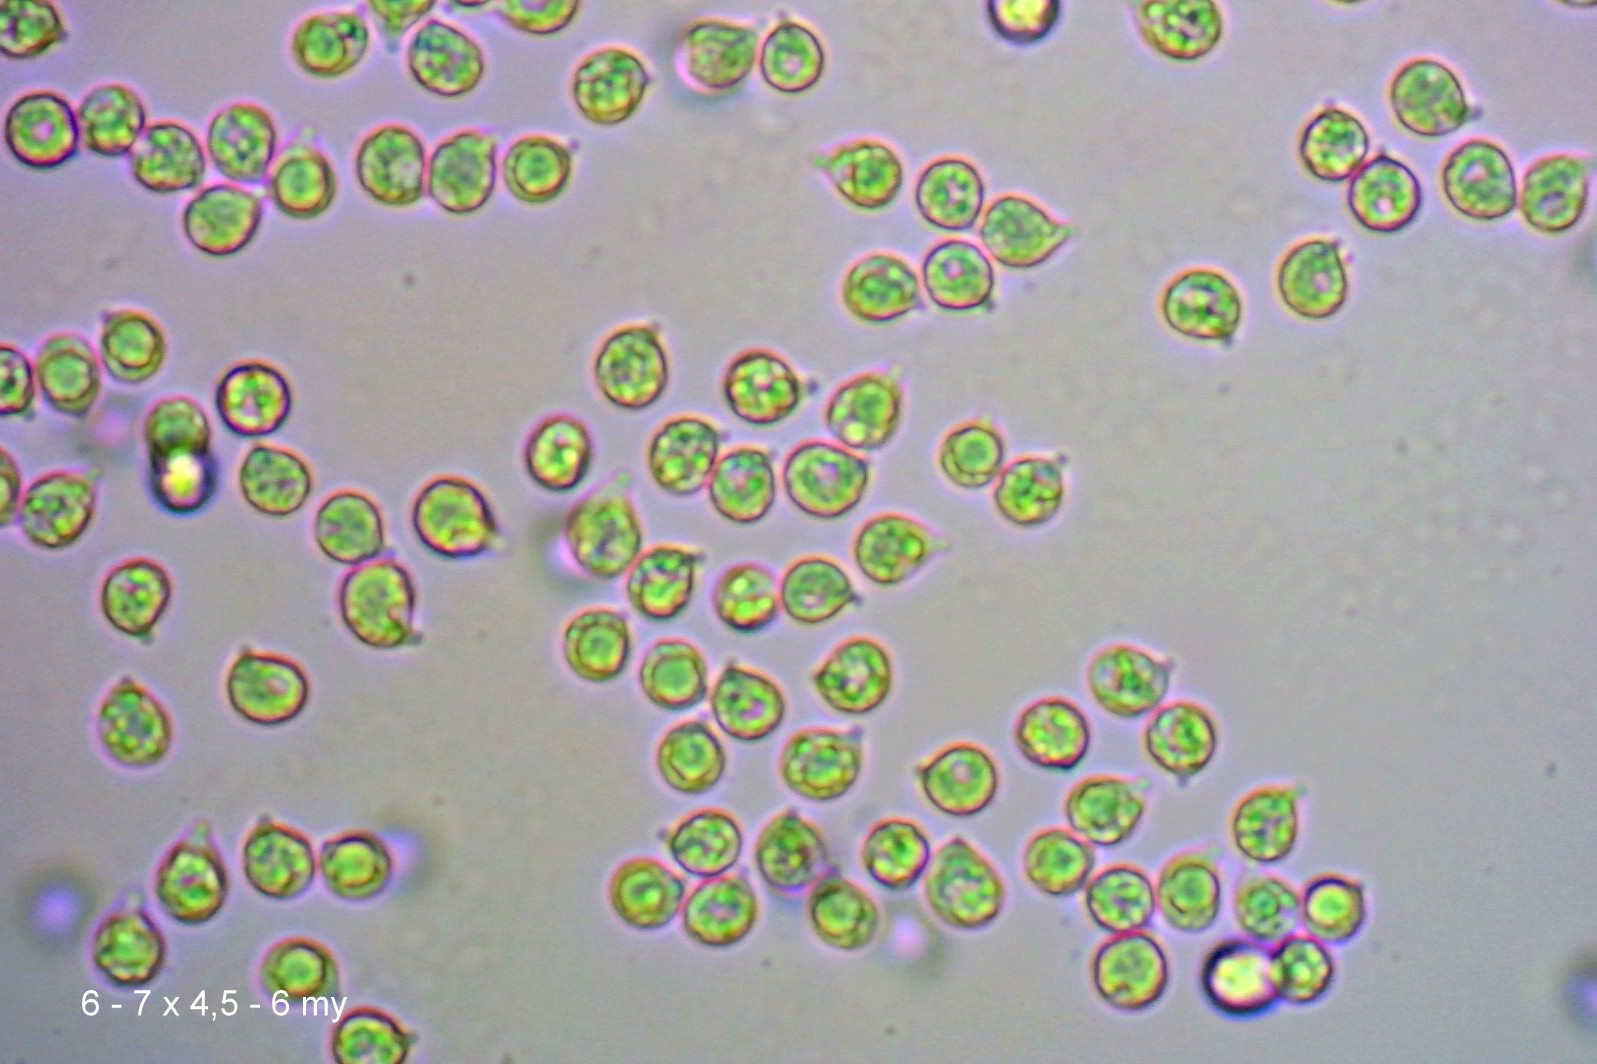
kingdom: Fungi
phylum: Basidiomycota
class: Agaricomycetes
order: Agaricales
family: Hygrophoraceae
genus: Cuphophyllus
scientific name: Cuphophyllus
